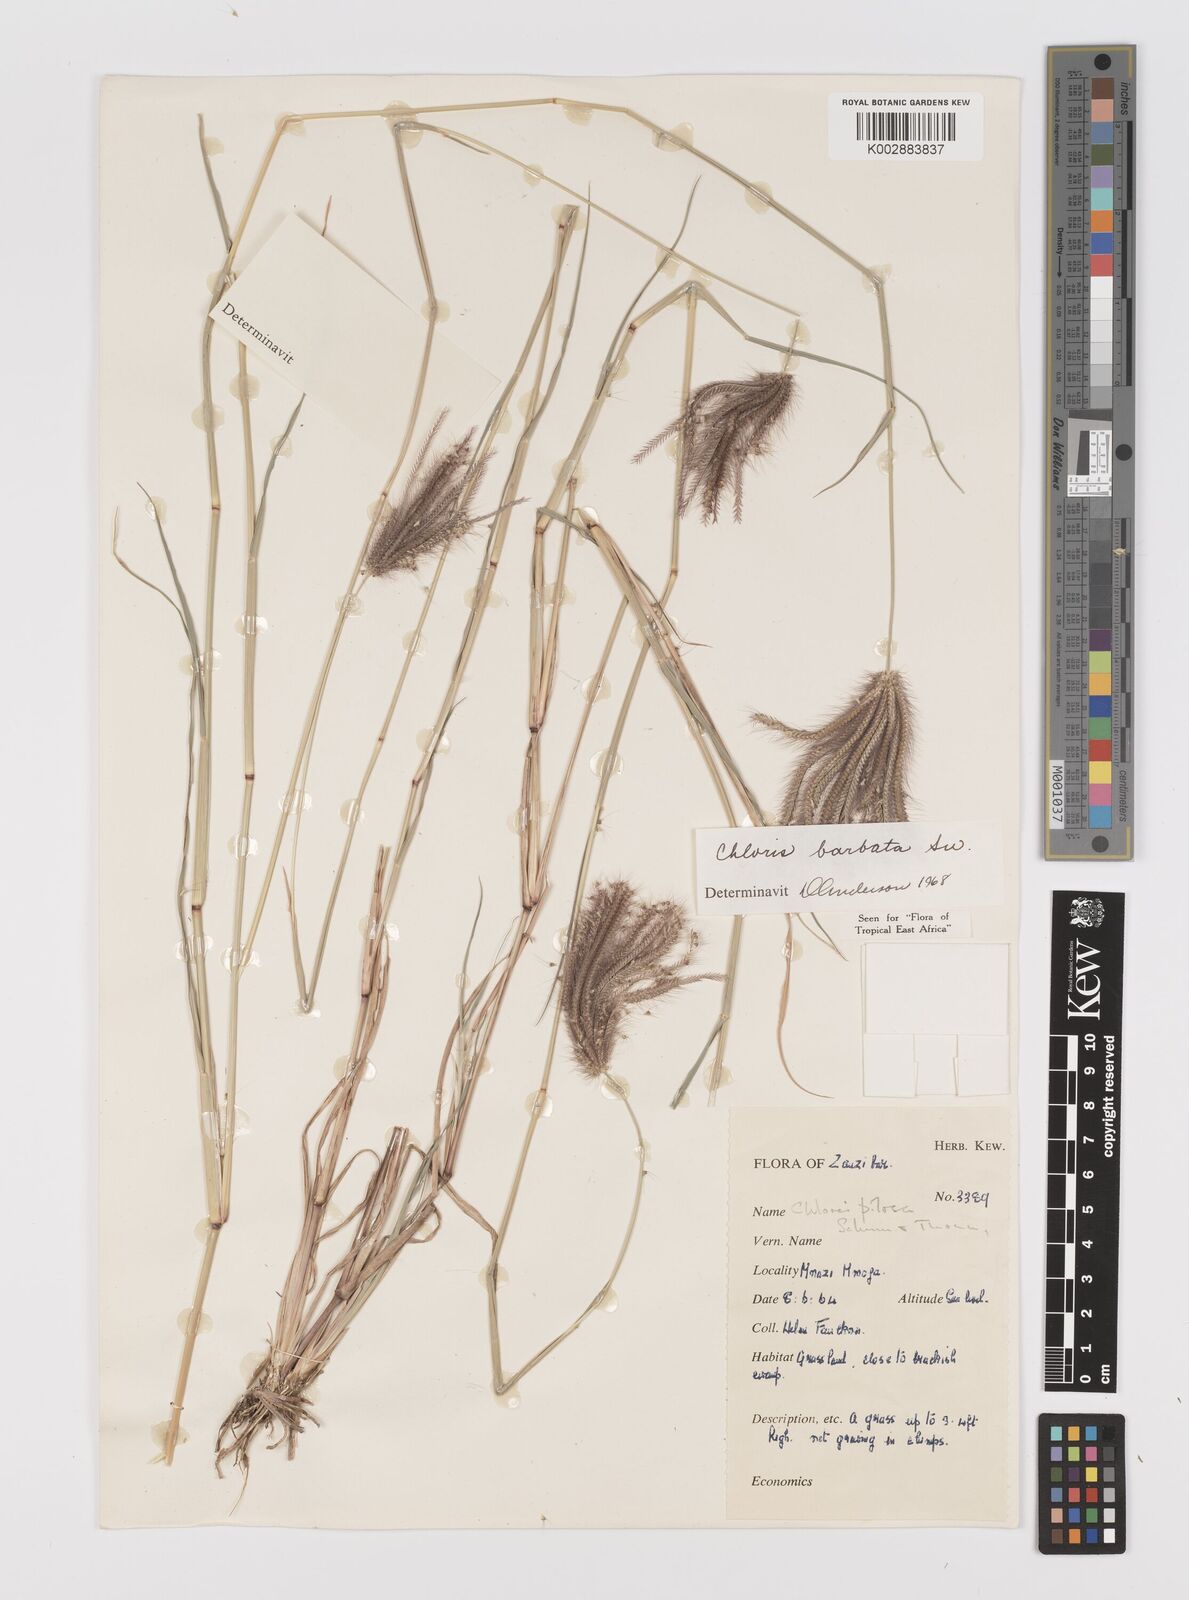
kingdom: Plantae
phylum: Tracheophyta
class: Liliopsida
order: Poales
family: Poaceae
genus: Chloris
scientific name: Chloris barbata
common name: Swollen fingergrass
